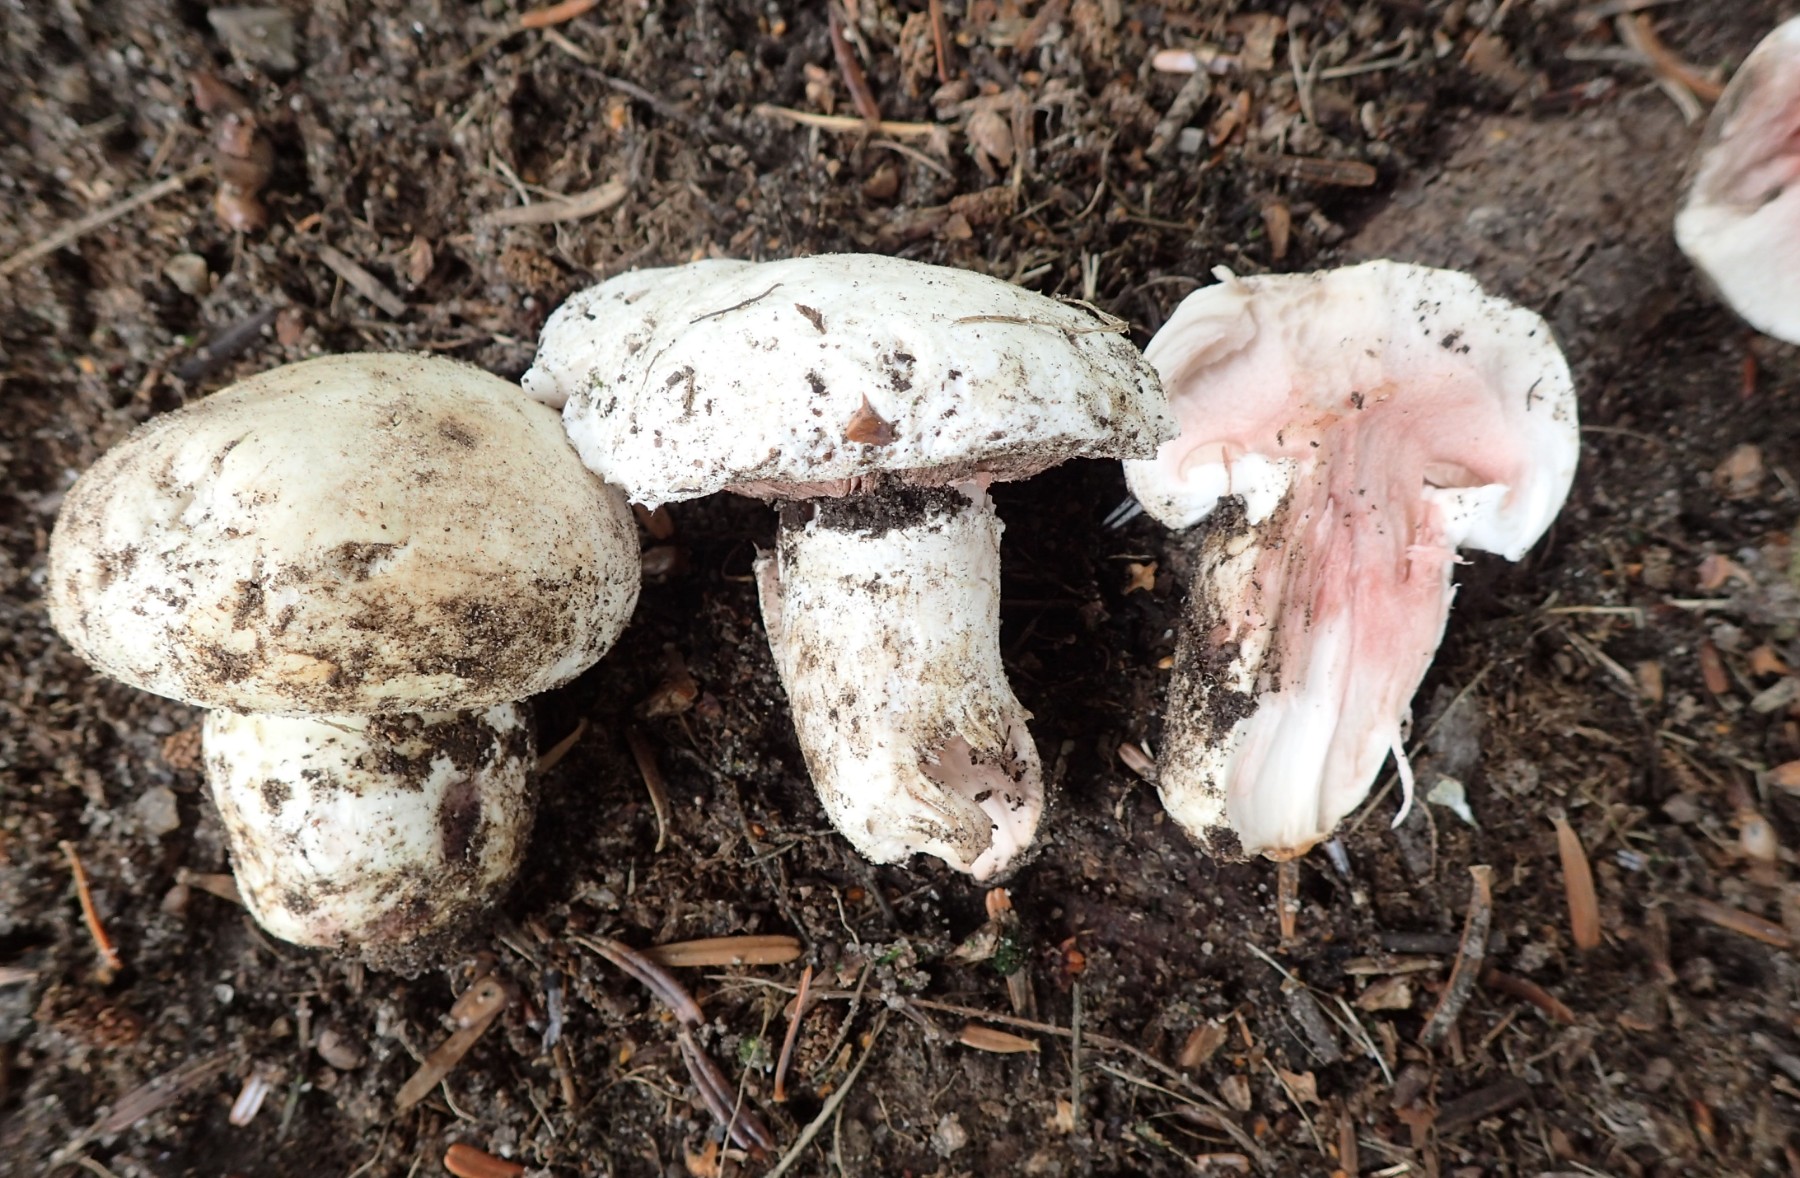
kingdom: Fungi
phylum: Basidiomycota
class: Agaricomycetes
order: Agaricales
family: Agaricaceae
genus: Agaricus
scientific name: Agaricus bitorquis
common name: vej-champignon
